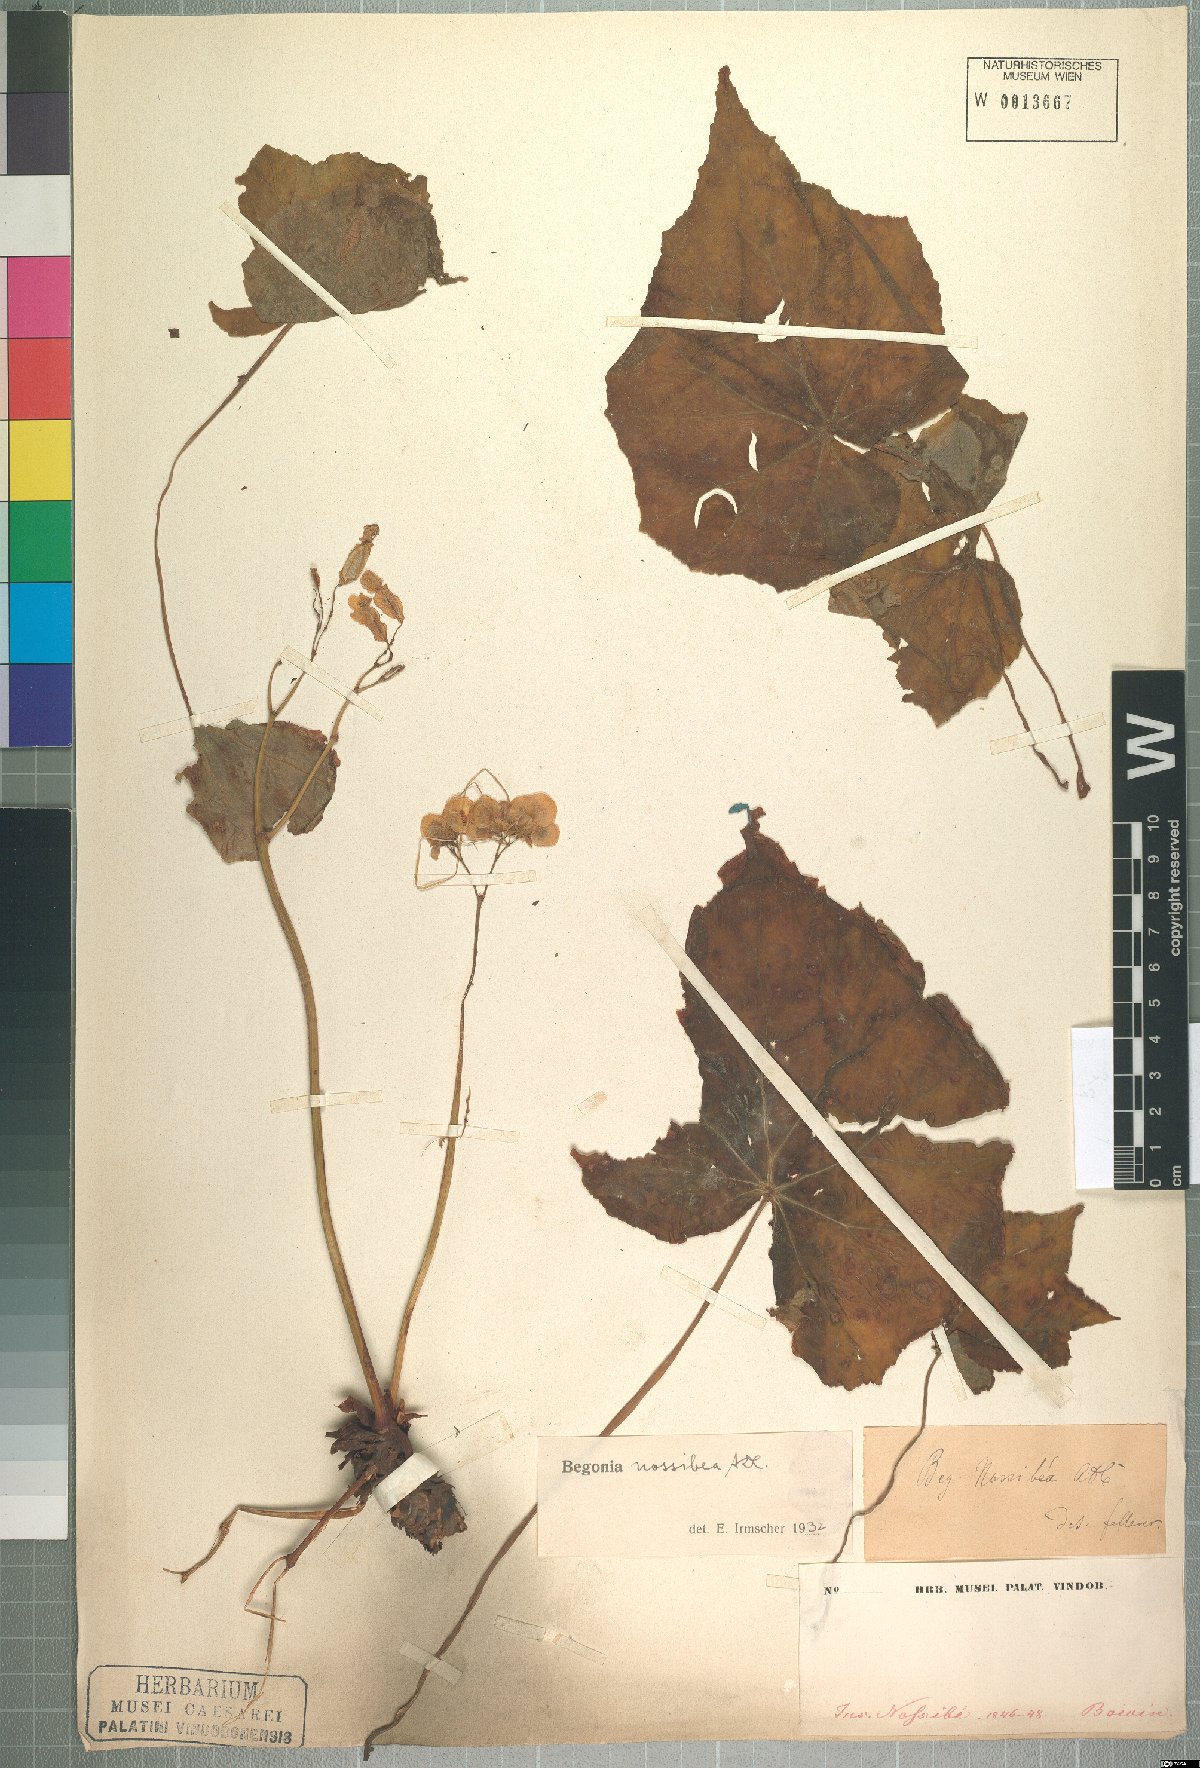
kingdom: Plantae
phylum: Tracheophyta
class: Magnoliopsida
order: Cucurbitales
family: Begoniaceae
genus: Begonia
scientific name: Begonia nossibea
